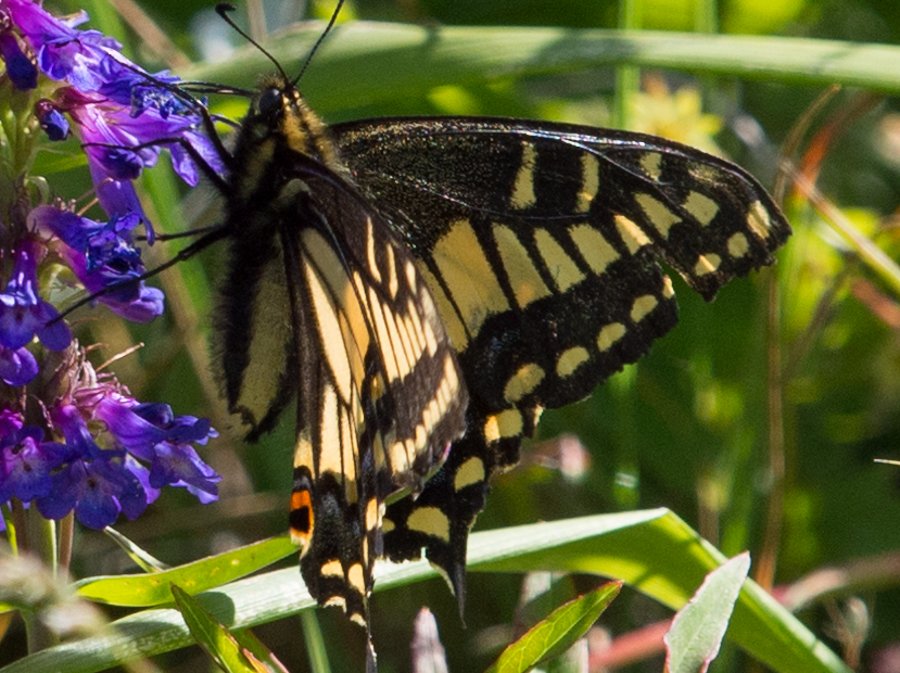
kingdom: Animalia
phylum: Arthropoda
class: Insecta
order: Lepidoptera
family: Papilionidae
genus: Papilio
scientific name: Papilio zelicaon
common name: Anise Swallowtail
